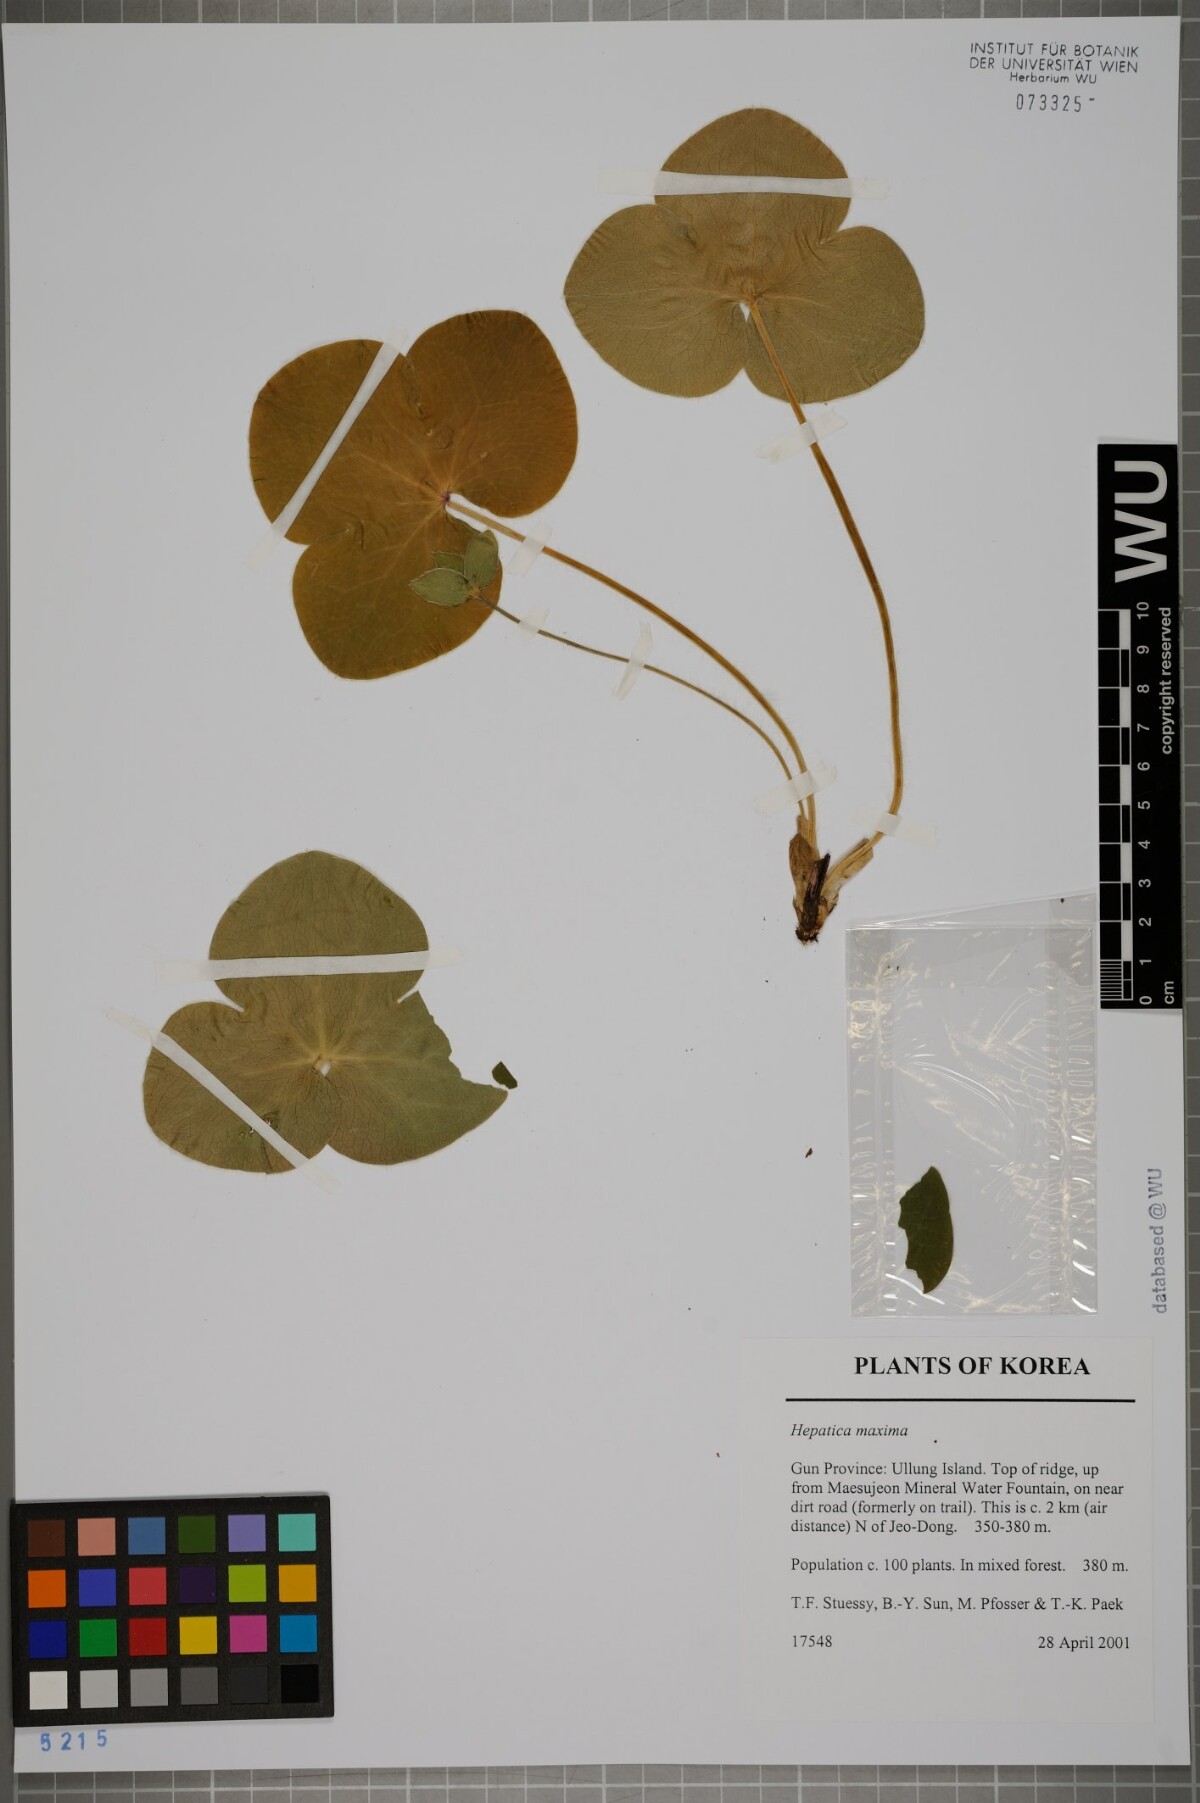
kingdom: Plantae
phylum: Tracheophyta
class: Magnoliopsida
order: Ranunculales
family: Ranunculaceae
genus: Hepatica
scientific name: Hepatica maxima
